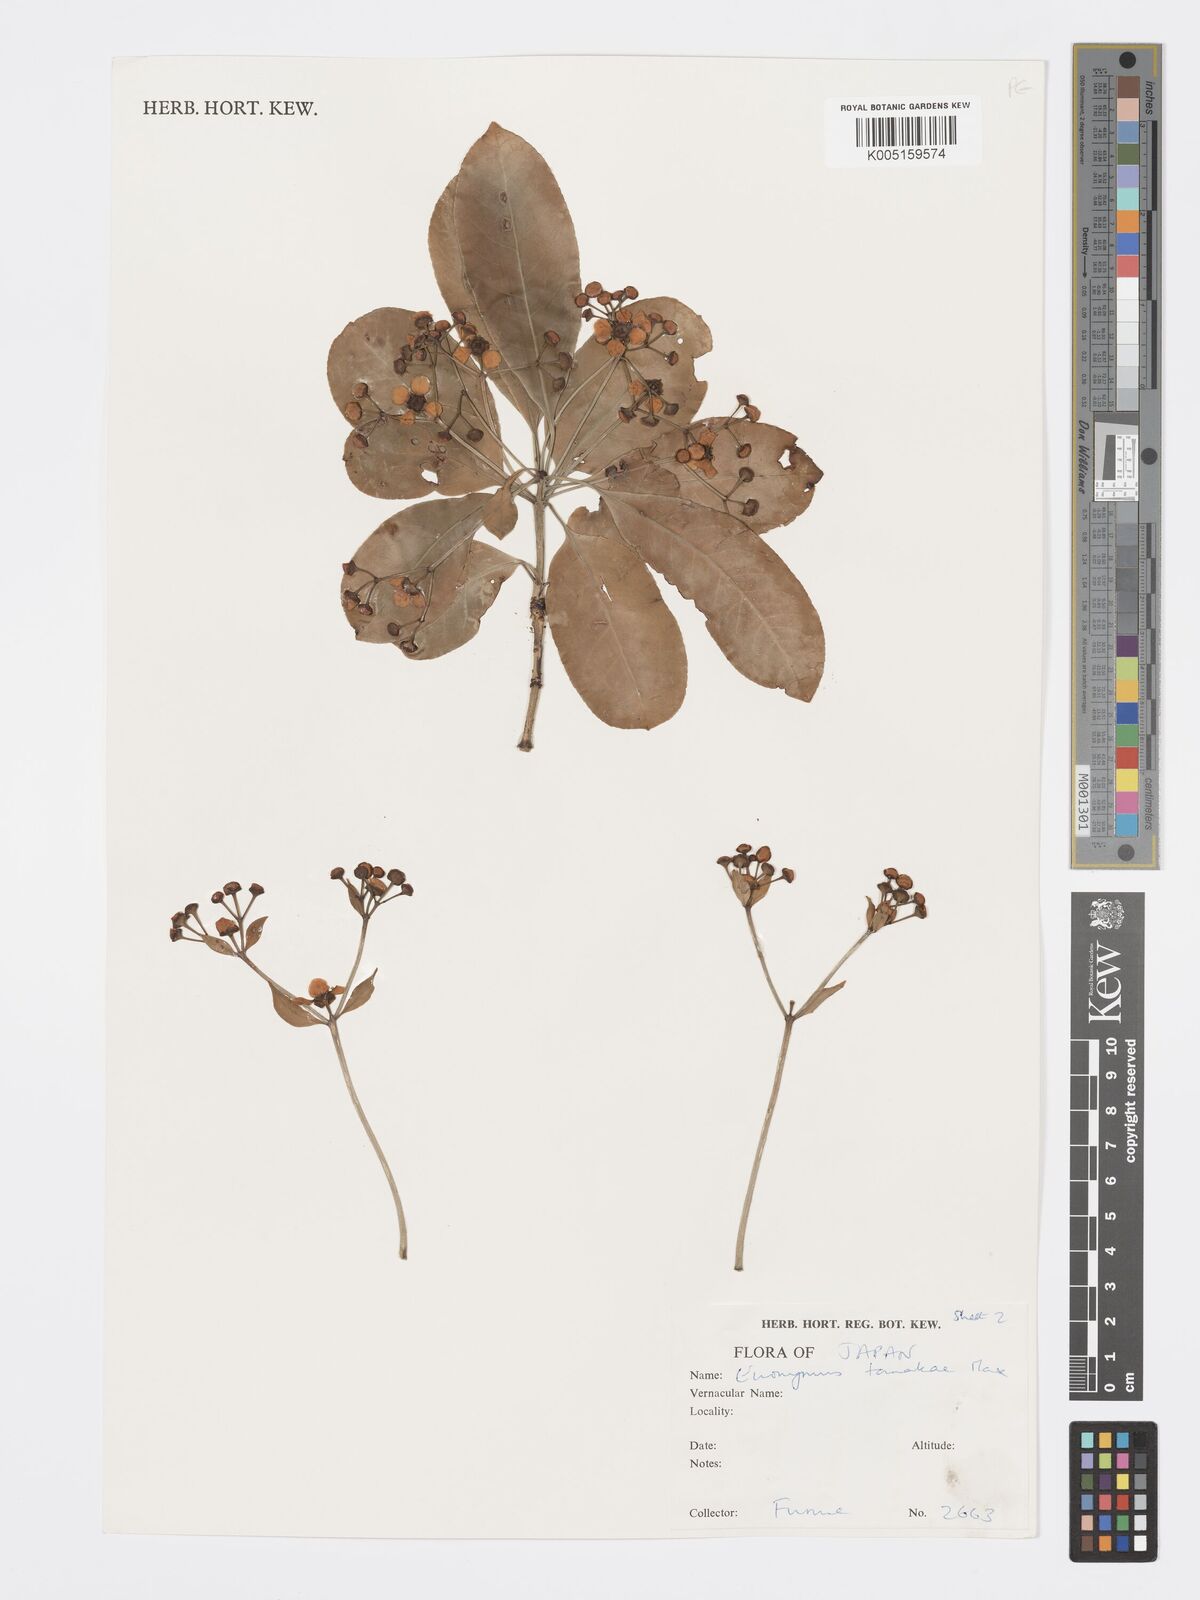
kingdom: Plantae
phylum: Tracheophyta
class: Magnoliopsida
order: Celastrales
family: Celastraceae
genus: Euonymus
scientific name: Euonymus carnosus
